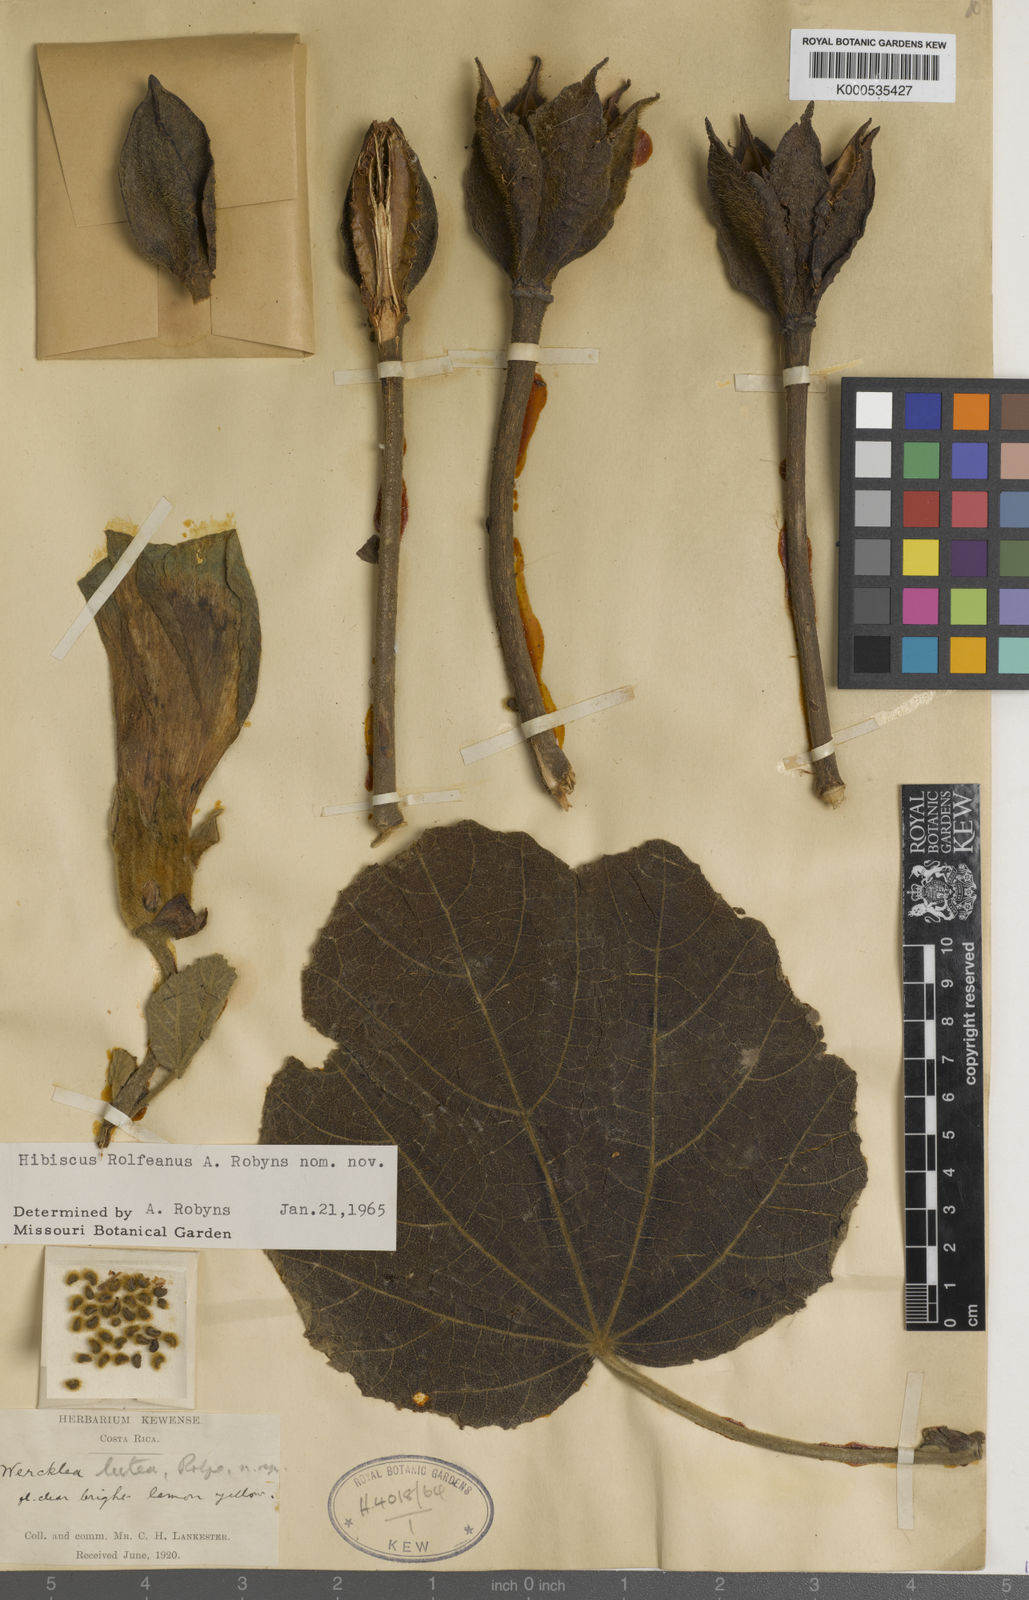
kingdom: Plantae
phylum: Tracheophyta
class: Magnoliopsida
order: Malvales
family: Malvaceae
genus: Wercklea
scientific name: Wercklea lutea
